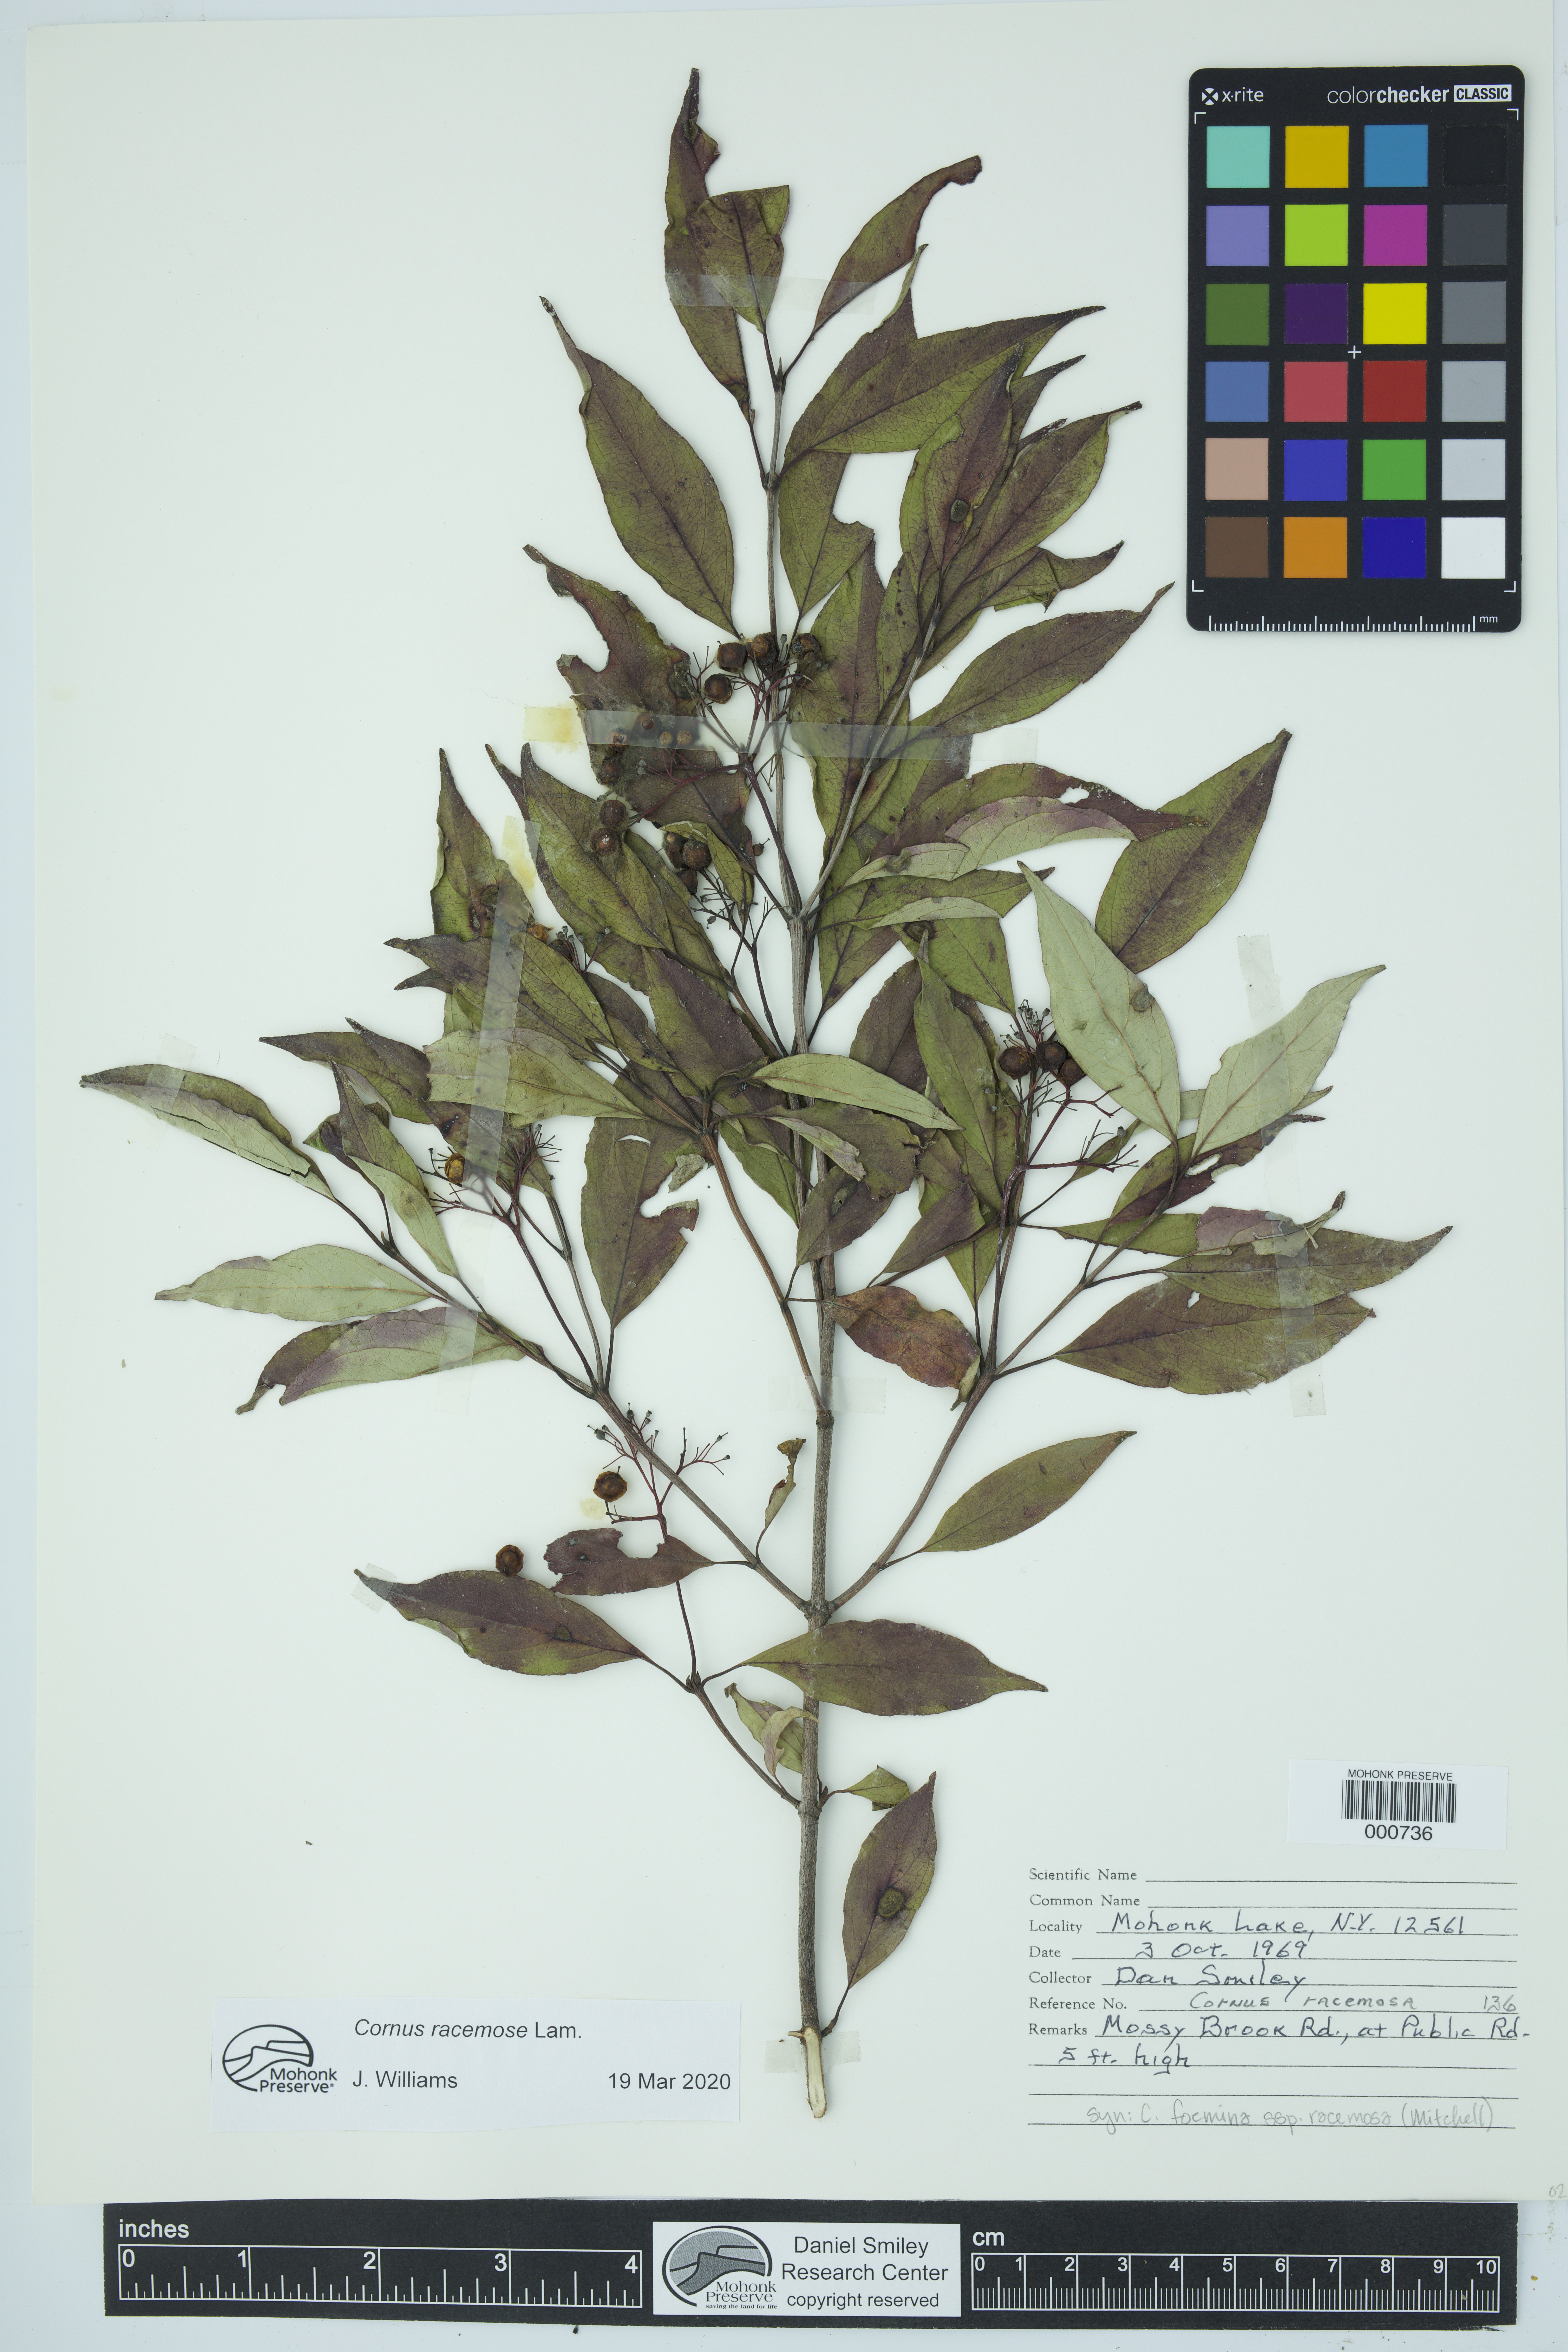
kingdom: Plantae
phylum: Tracheophyta
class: Magnoliopsida
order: Cornales
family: Cornaceae
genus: Cornus
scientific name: Cornus racemosa
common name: Panicled dogwood
